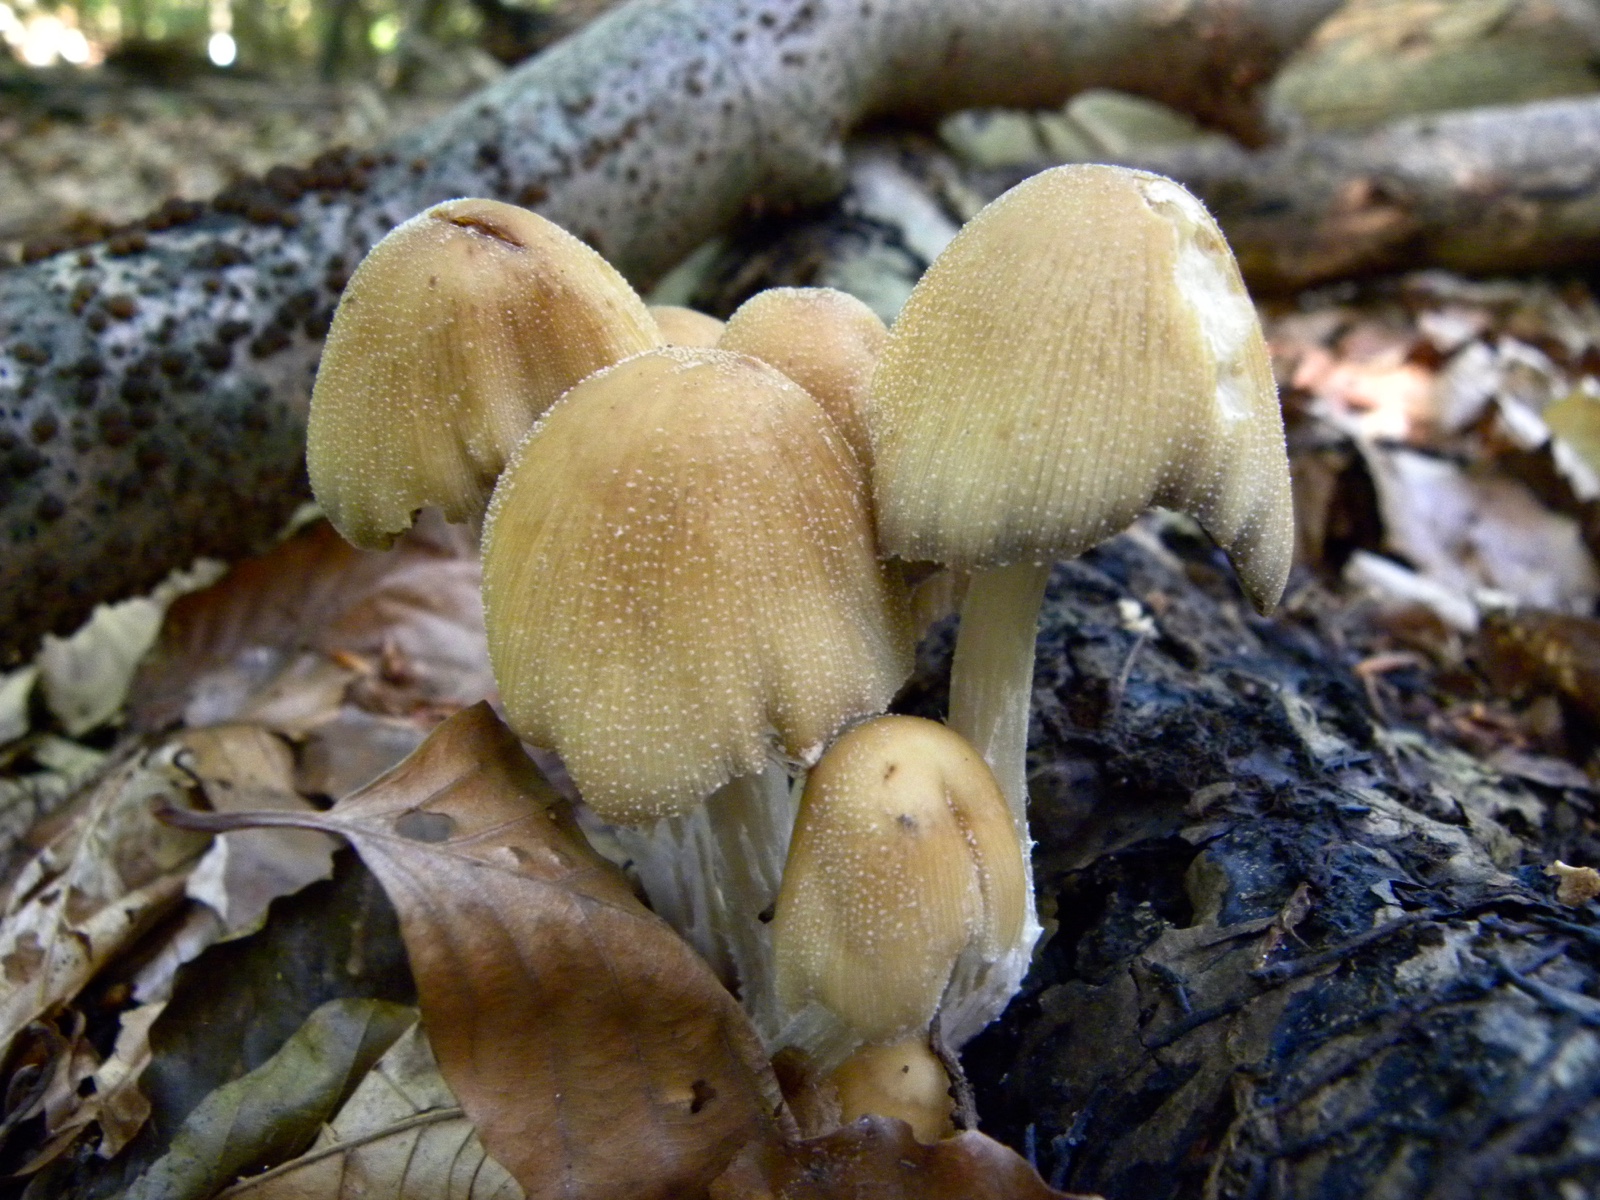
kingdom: Fungi
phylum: Basidiomycota
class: Agaricomycetes
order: Agaricales
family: Psathyrellaceae
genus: Coprinellus
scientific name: Coprinellus micaceus
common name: glimmer-blækhat
